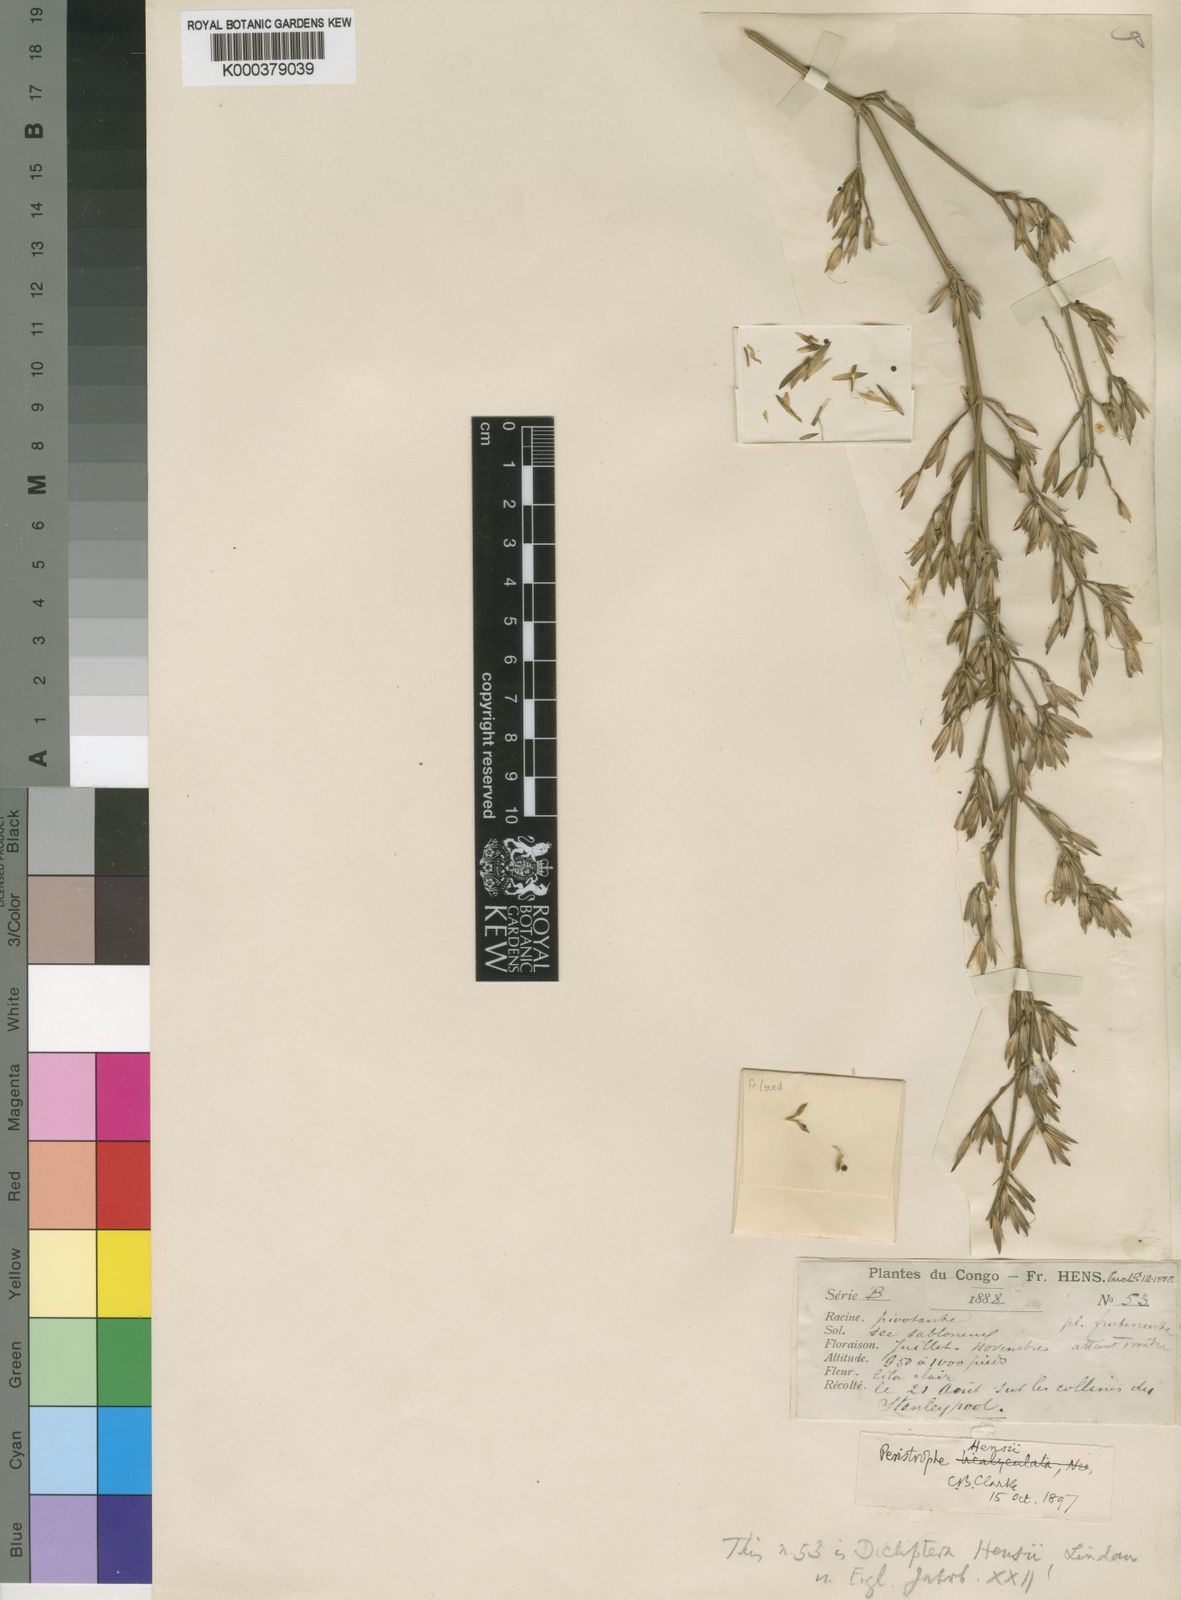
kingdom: Plantae
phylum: Tracheophyta
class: Magnoliopsida
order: Lamiales
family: Acanthaceae
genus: Dicliptera
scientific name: Dicliptera
